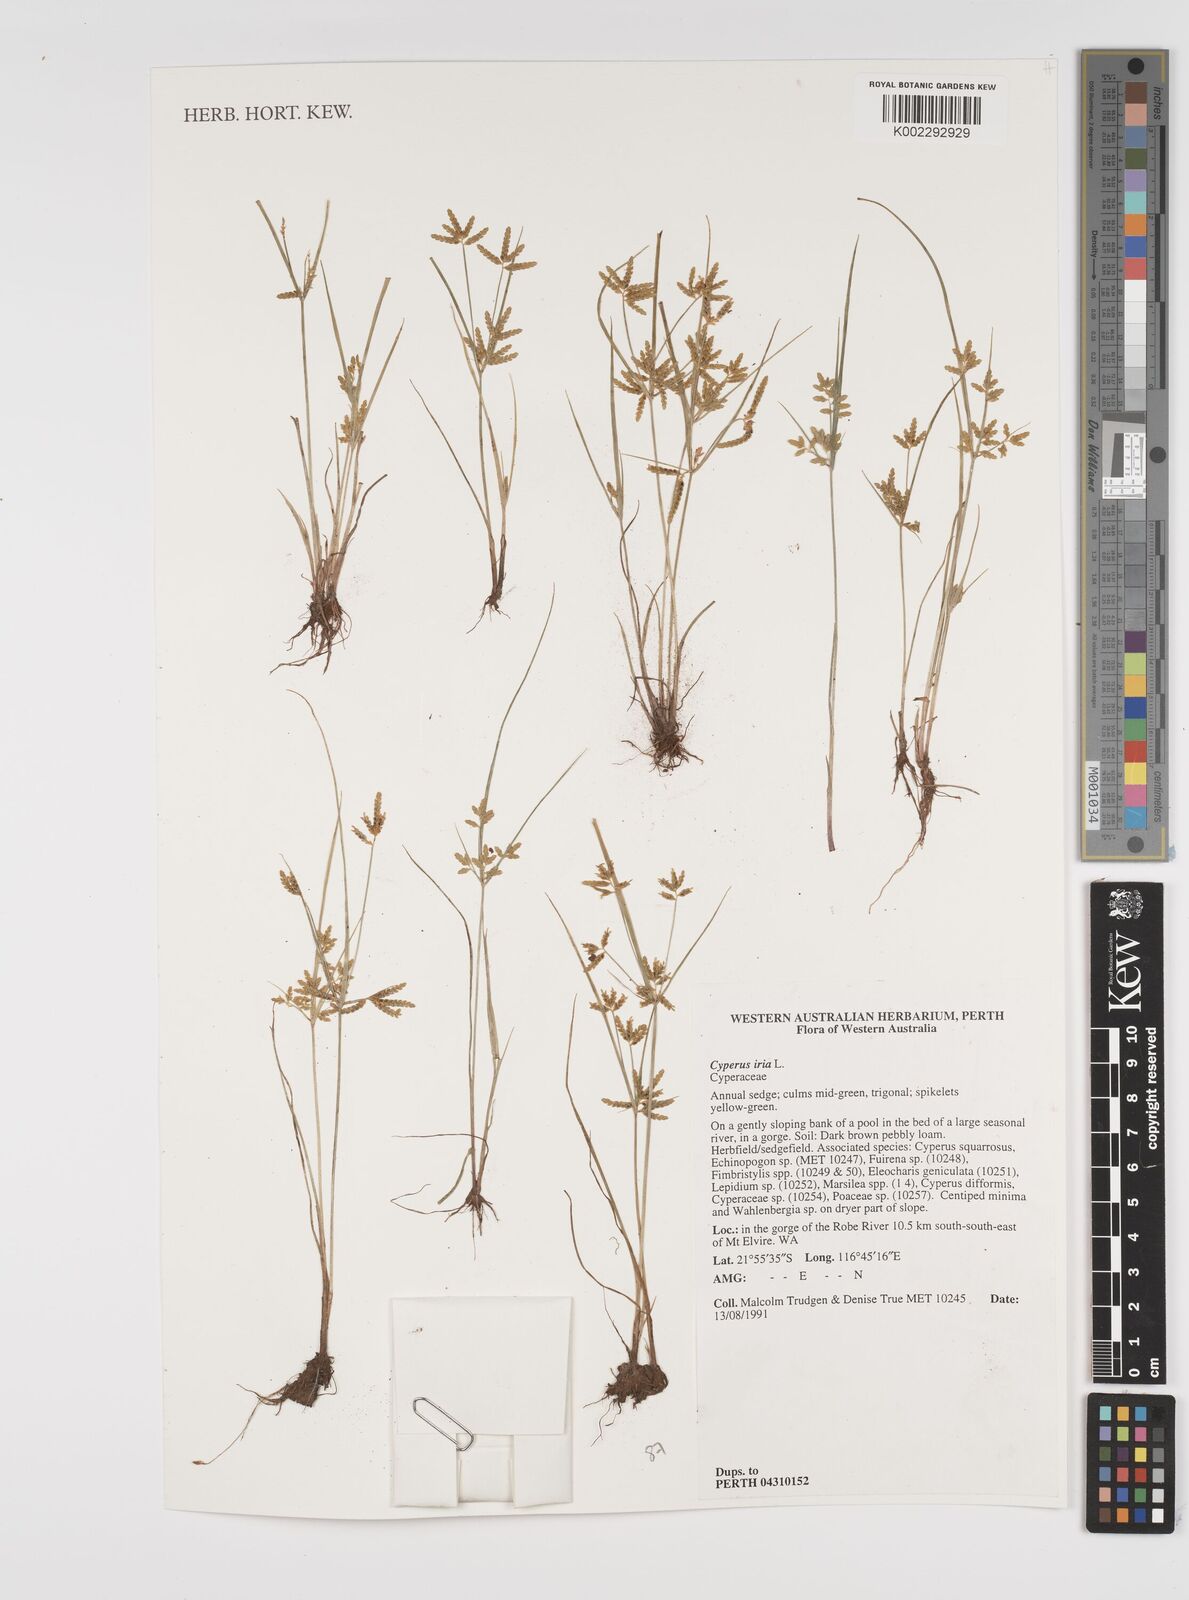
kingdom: Plantae
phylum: Tracheophyta
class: Liliopsida
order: Poales
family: Cyperaceae
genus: Cyperus
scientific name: Cyperus iria
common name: Ricefield flatsedge
